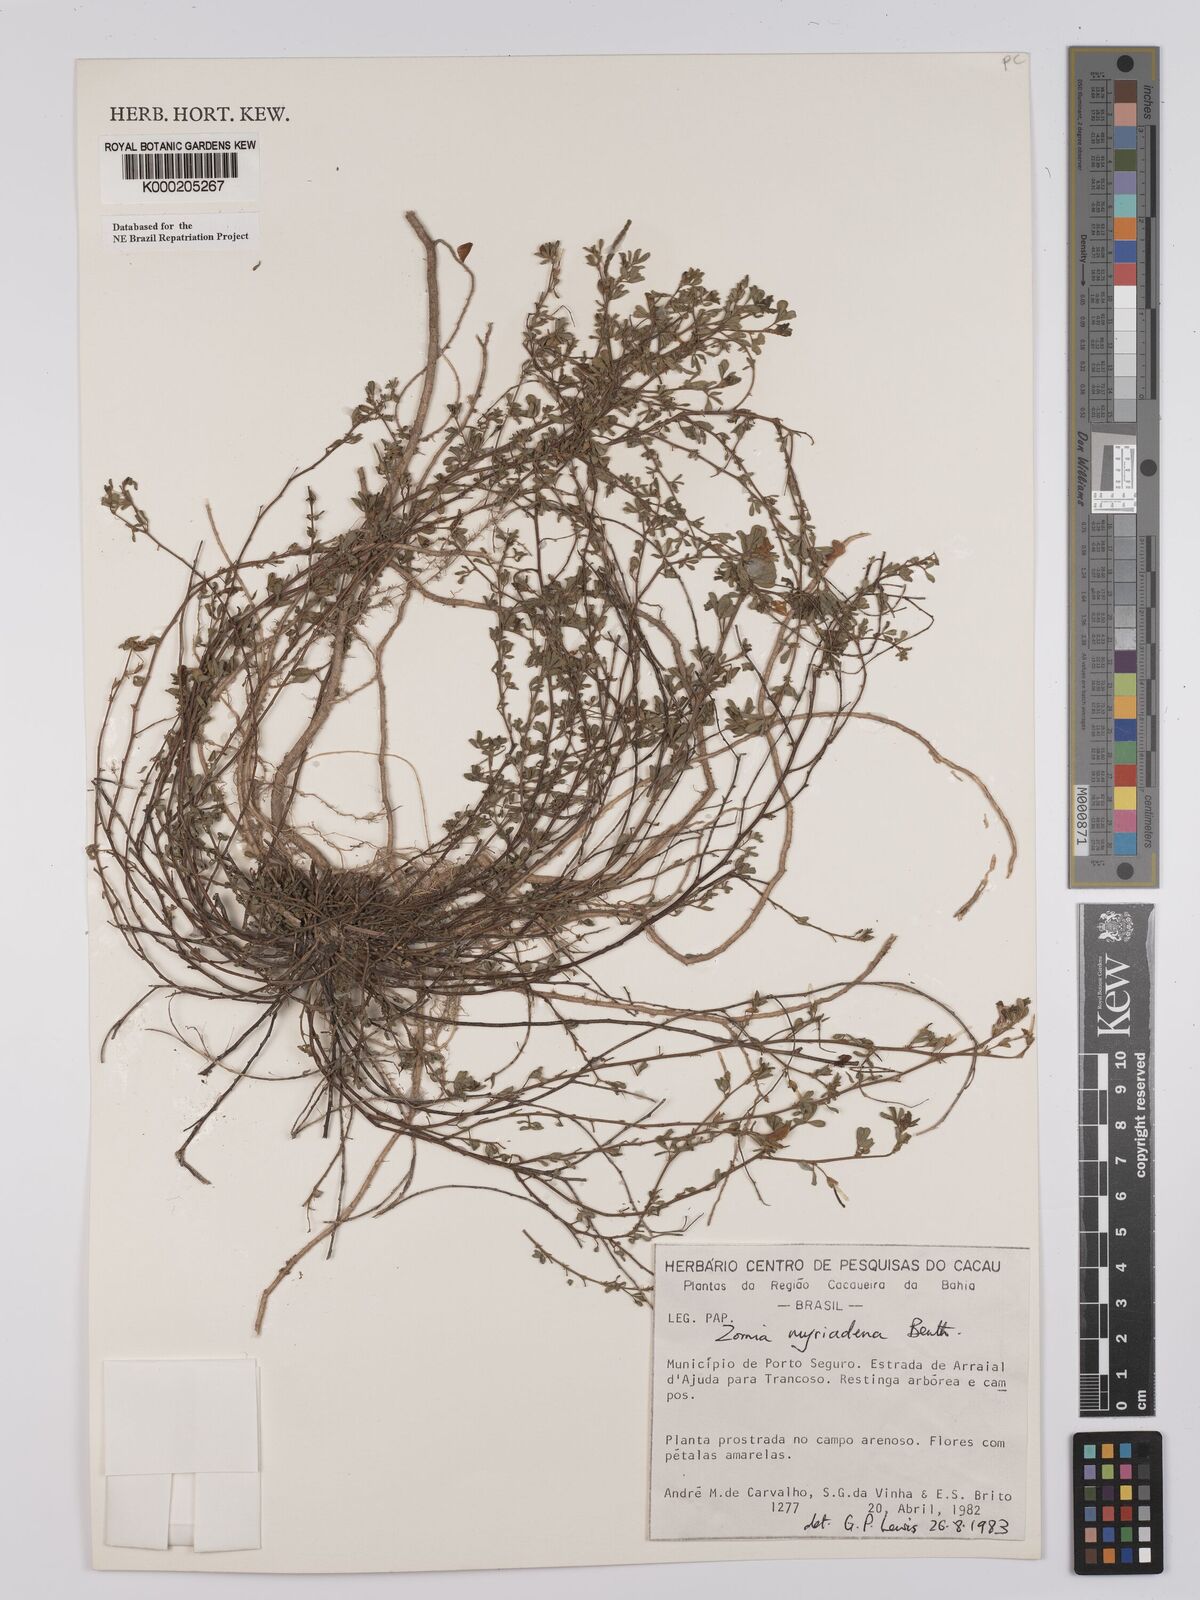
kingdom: Plantae
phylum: Tracheophyta
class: Magnoliopsida
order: Fabales
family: Fabaceae
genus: Zornia
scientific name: Zornia myriadena
